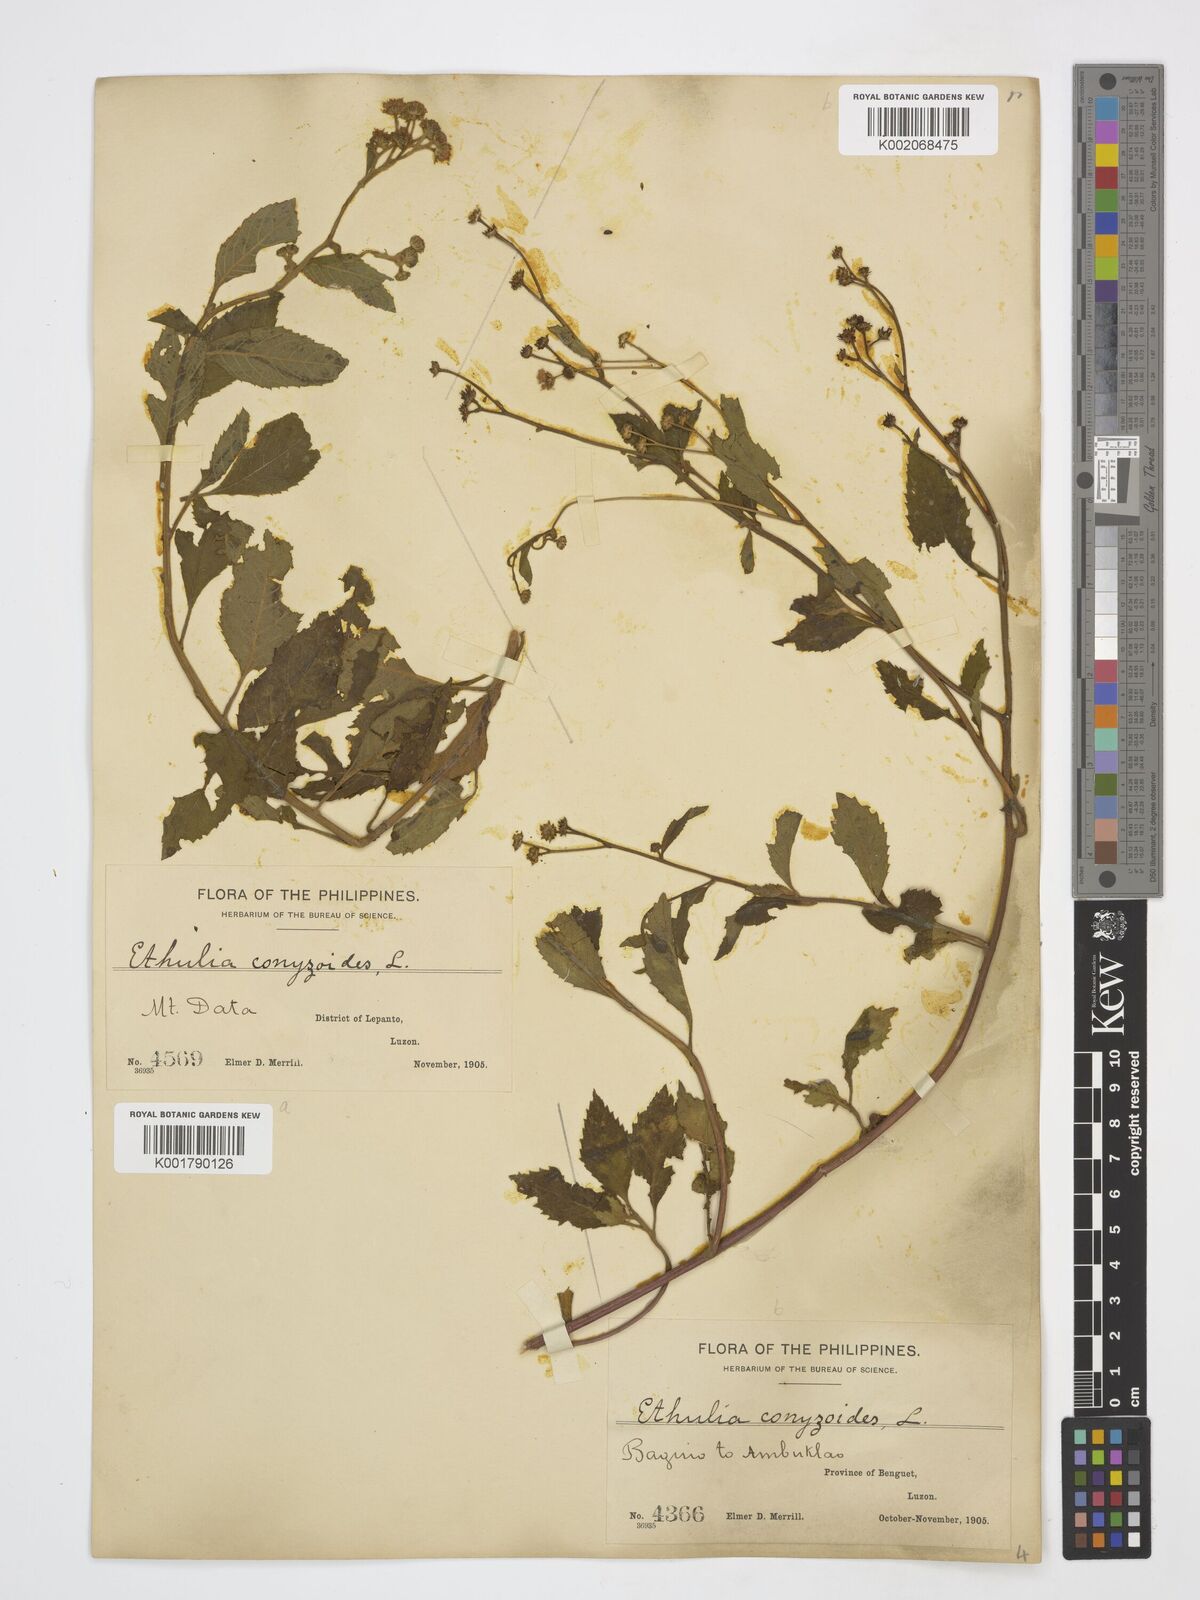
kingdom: Plantae
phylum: Tracheophyta
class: Magnoliopsida
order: Asterales
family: Asteraceae
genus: Ethulia
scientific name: Ethulia conyzoides
